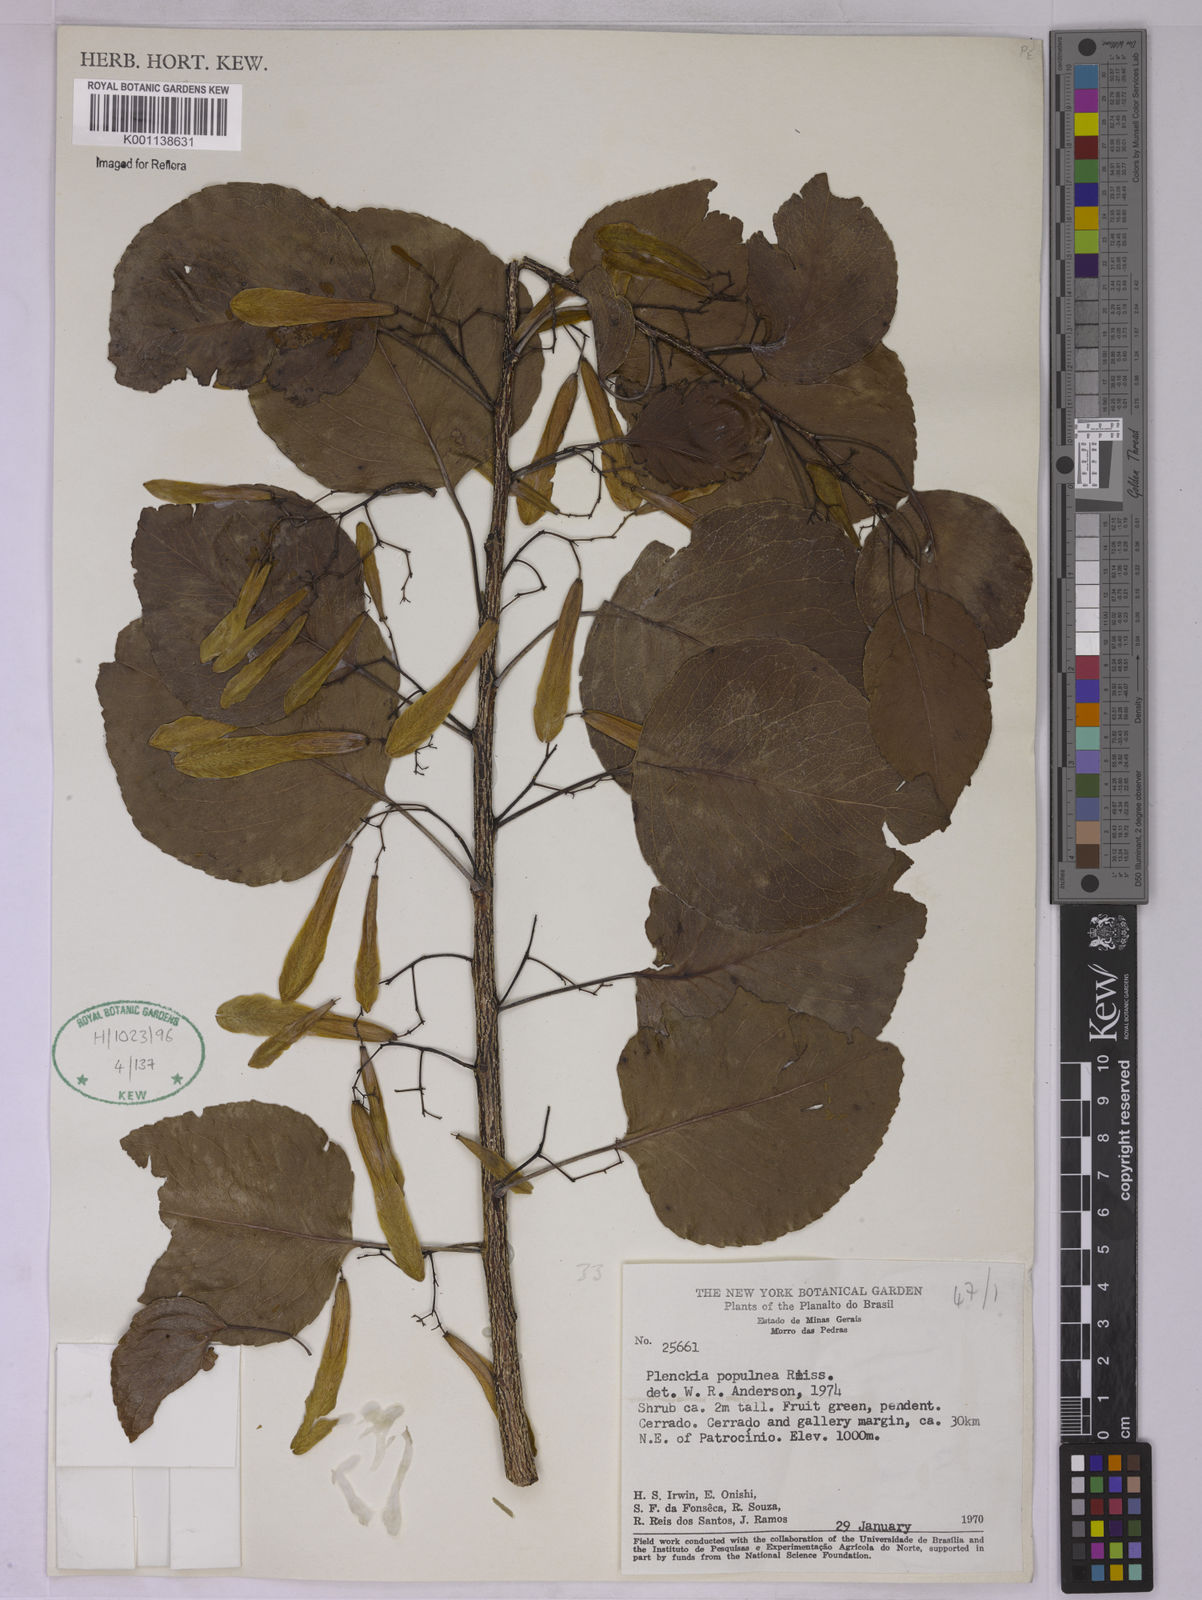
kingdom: Plantae
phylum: Tracheophyta
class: Magnoliopsida
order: Celastrales
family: Celastraceae
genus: Plenckia
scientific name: Plenckia populnea
